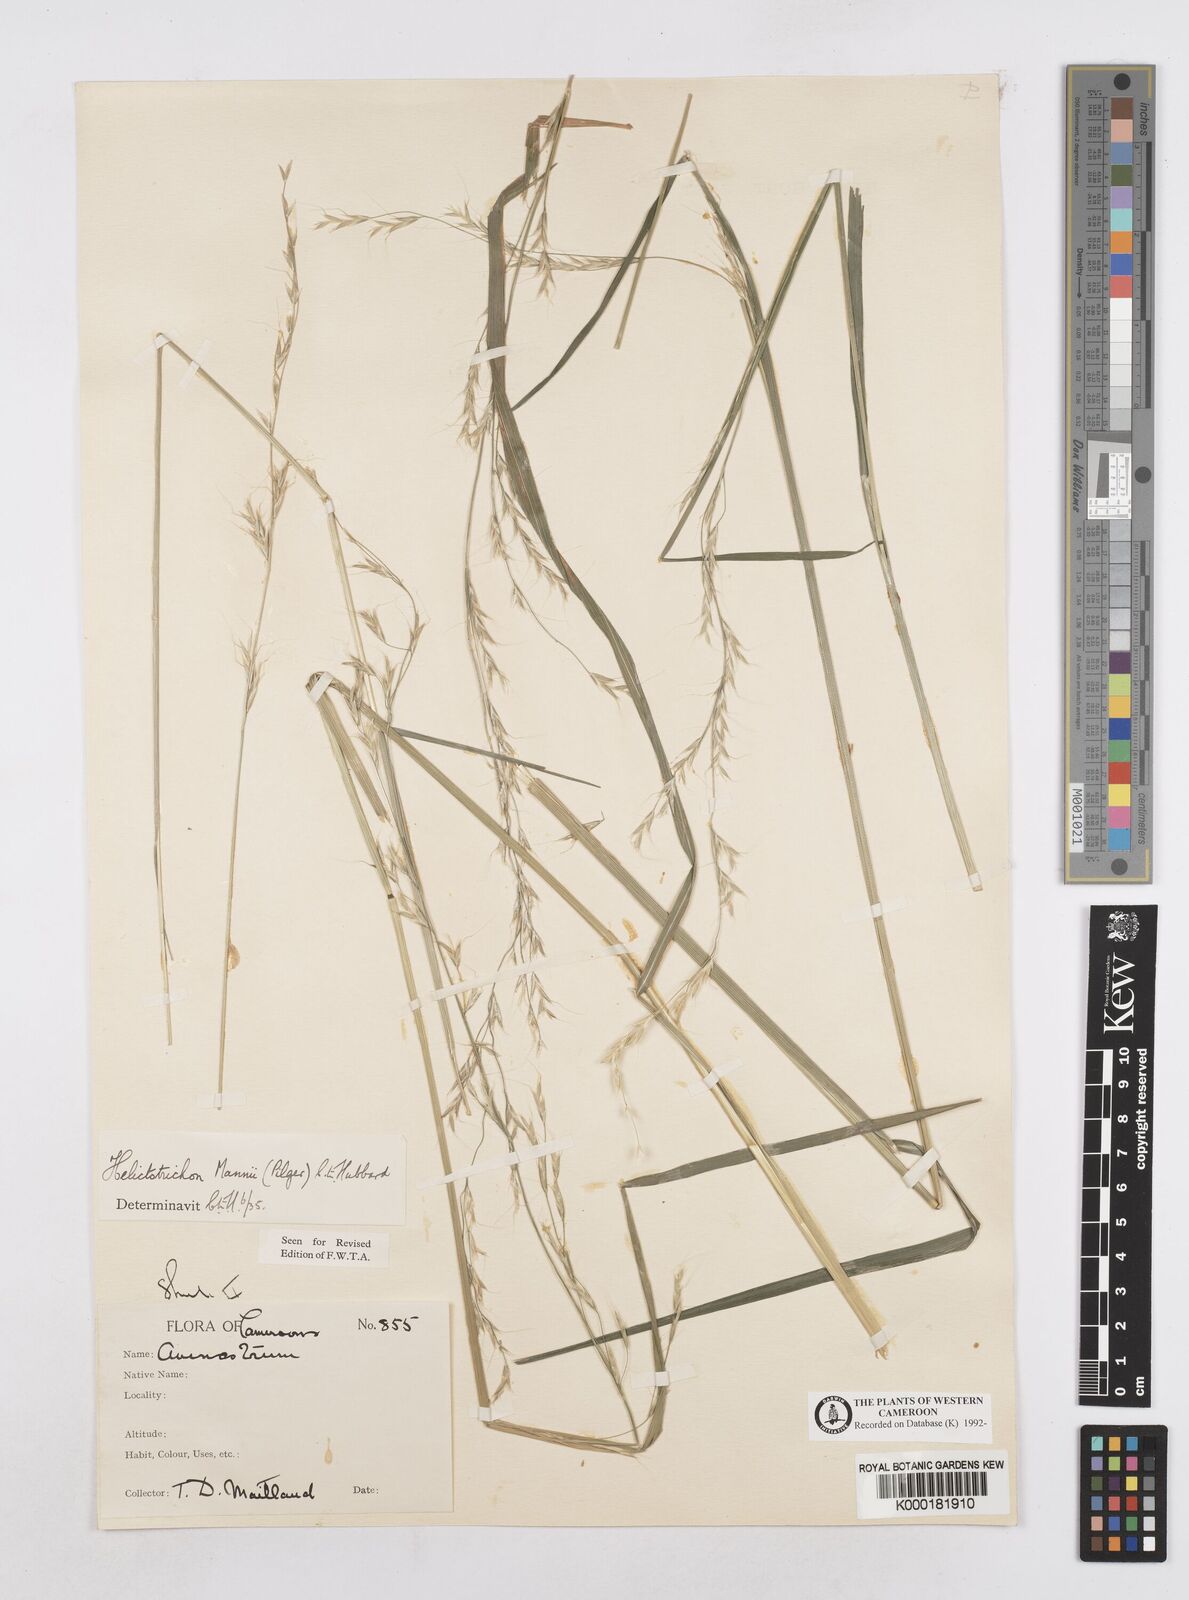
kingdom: Plantae
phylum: Tracheophyta
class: Liliopsida
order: Poales
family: Poaceae
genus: Trisetopsis
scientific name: Trisetopsis mannii
